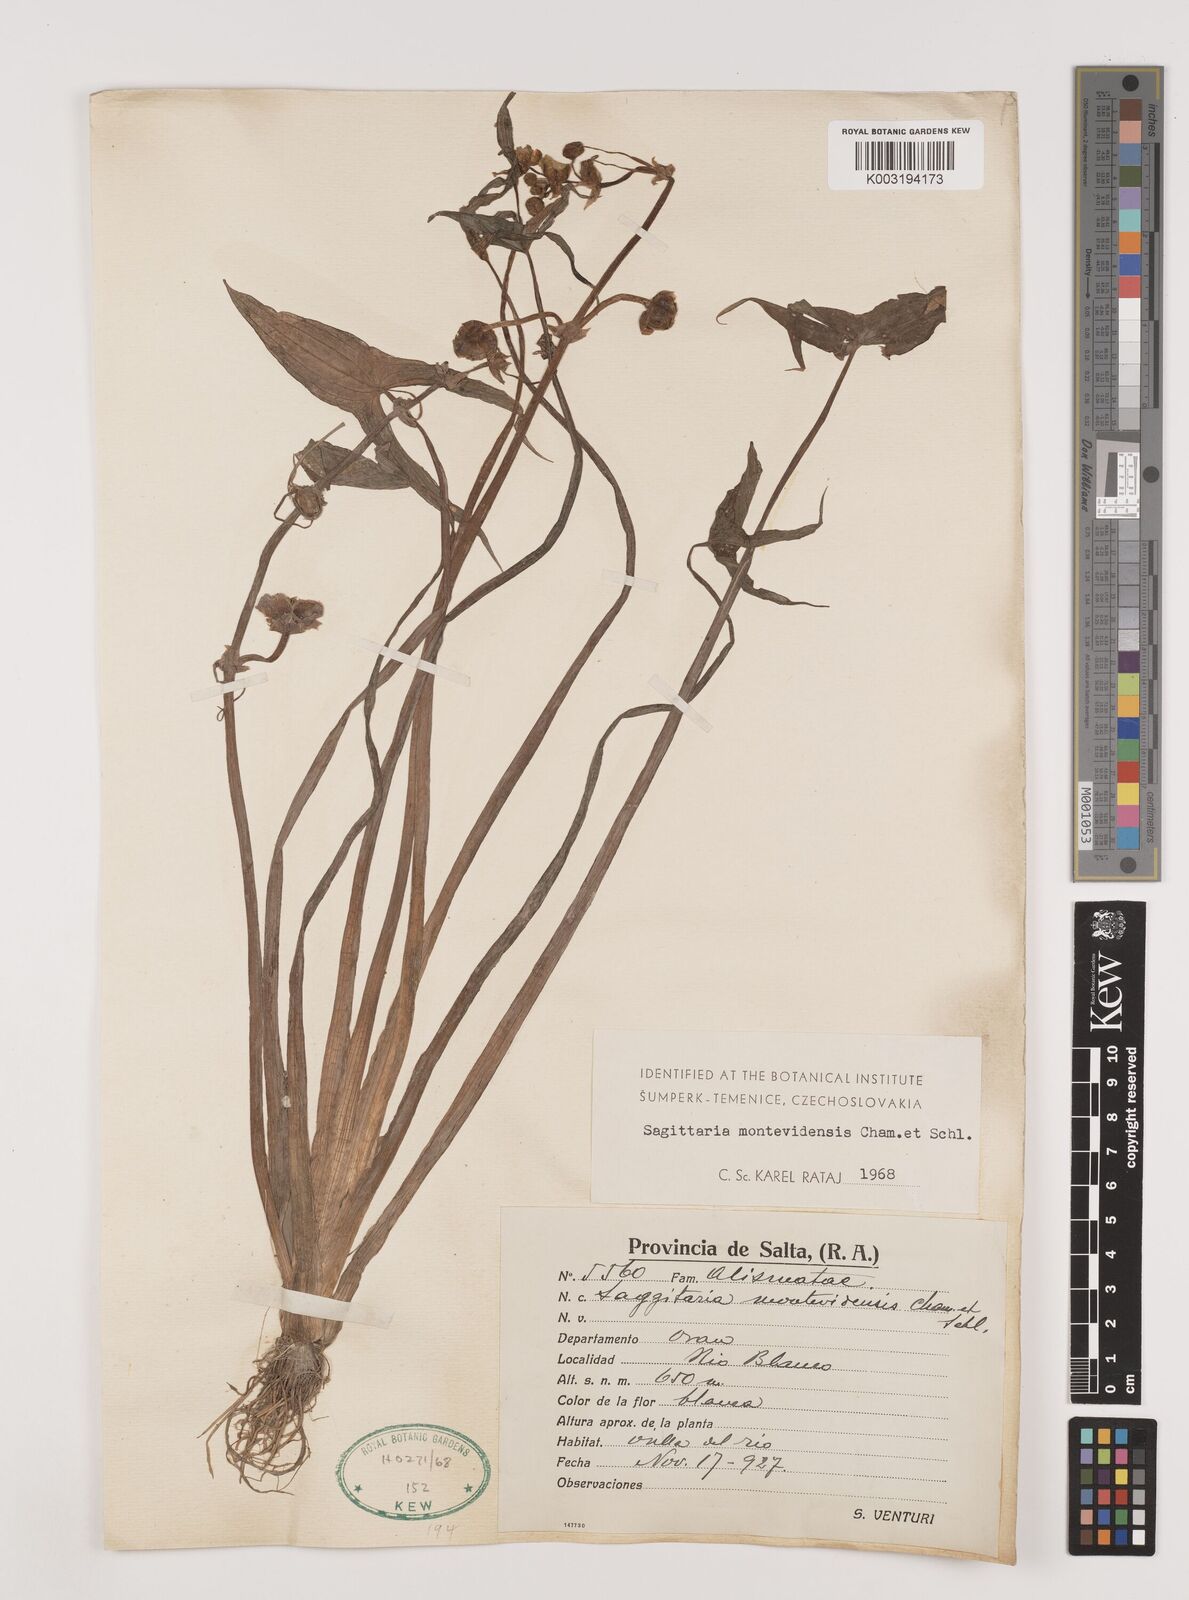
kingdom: Plantae
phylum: Tracheophyta
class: Liliopsida
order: Alismatales
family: Alismataceae
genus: Sagittaria
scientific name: Sagittaria montevidensis
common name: Giant arrowhead
